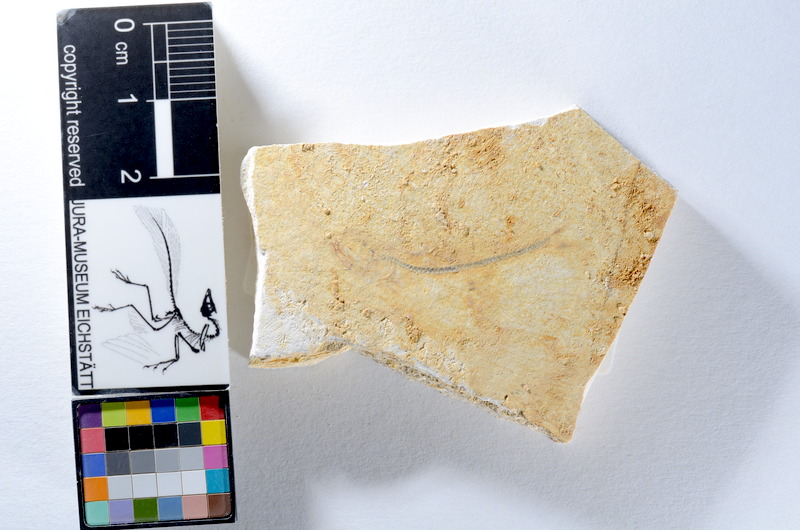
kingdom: Animalia
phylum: Chordata
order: Salmoniformes
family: Orthogonikleithridae
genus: Orthogonikleithrus
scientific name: Orthogonikleithrus hoelli
